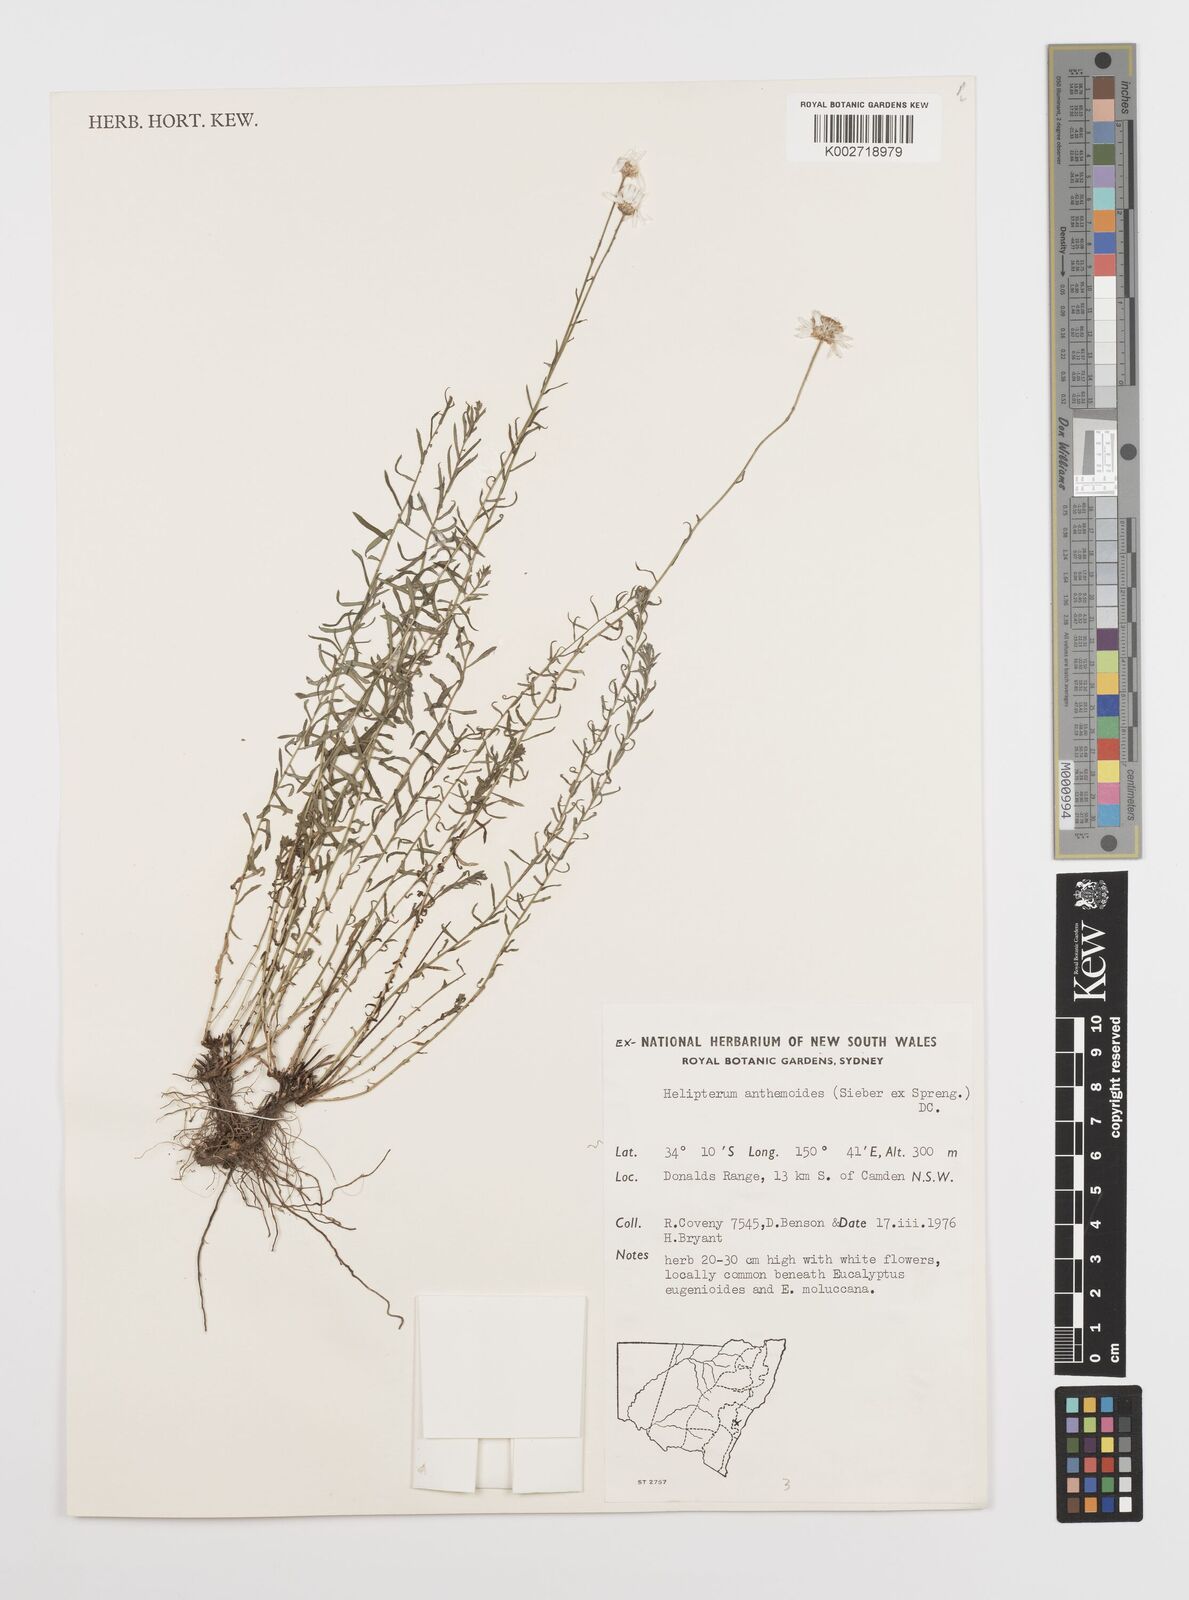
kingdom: Plantae
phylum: Tracheophyta
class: Magnoliopsida
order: Asterales
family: Asteraceae
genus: Rhodanthe
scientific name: Rhodanthe anthemoides
